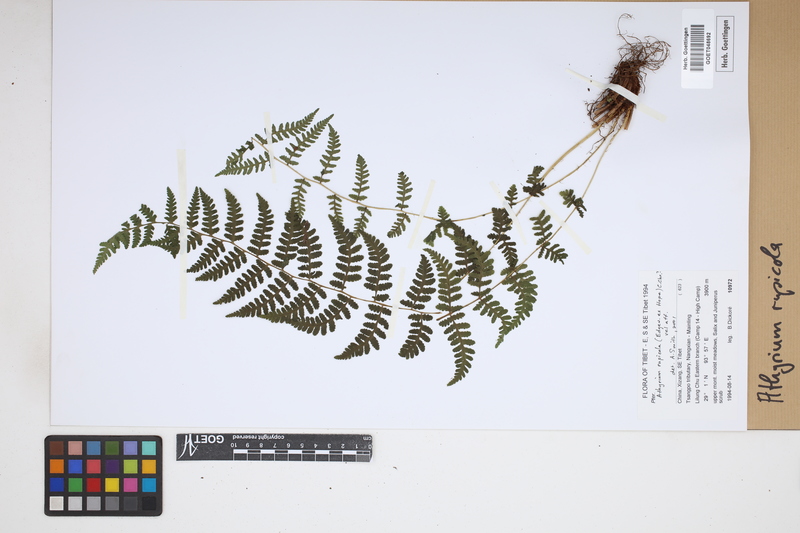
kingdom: Plantae
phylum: Tracheophyta
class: Polypodiopsida
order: Polypodiales
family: Athyriaceae
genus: Athyrium
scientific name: Athyrium rupicola
